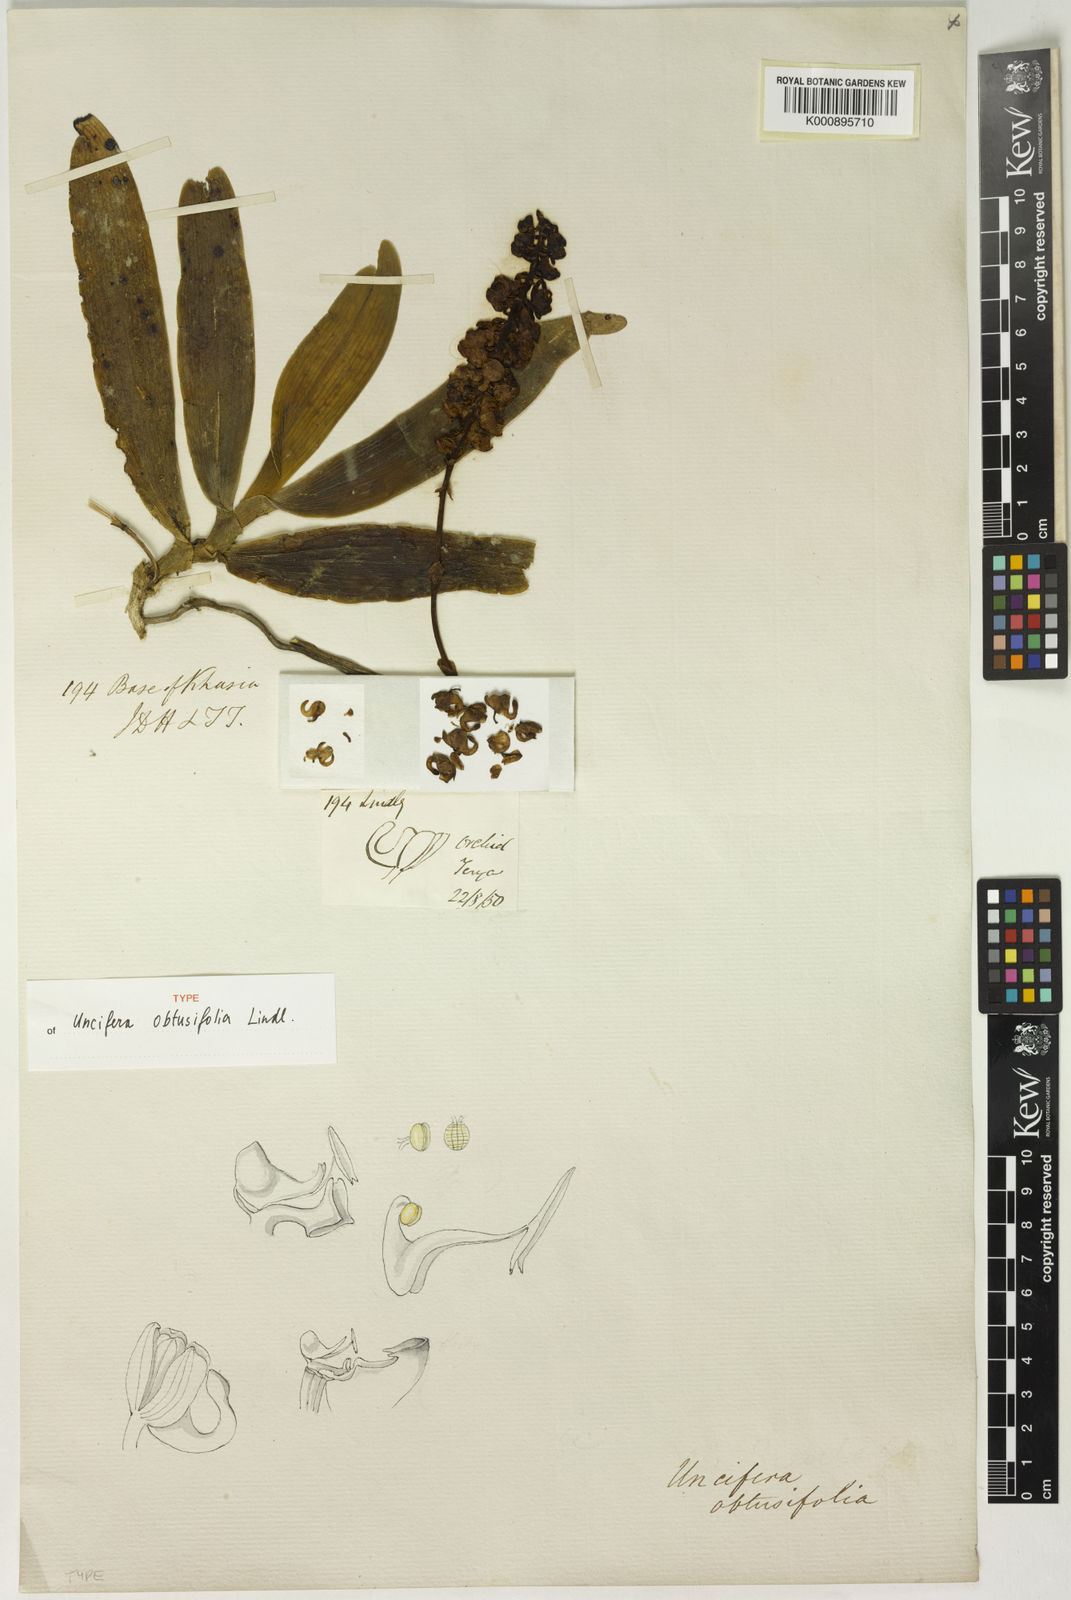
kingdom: Plantae
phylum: Tracheophyta
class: Liliopsida
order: Asparagales
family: Orchidaceae
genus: Uncifera
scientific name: Uncifera obtusifolia
